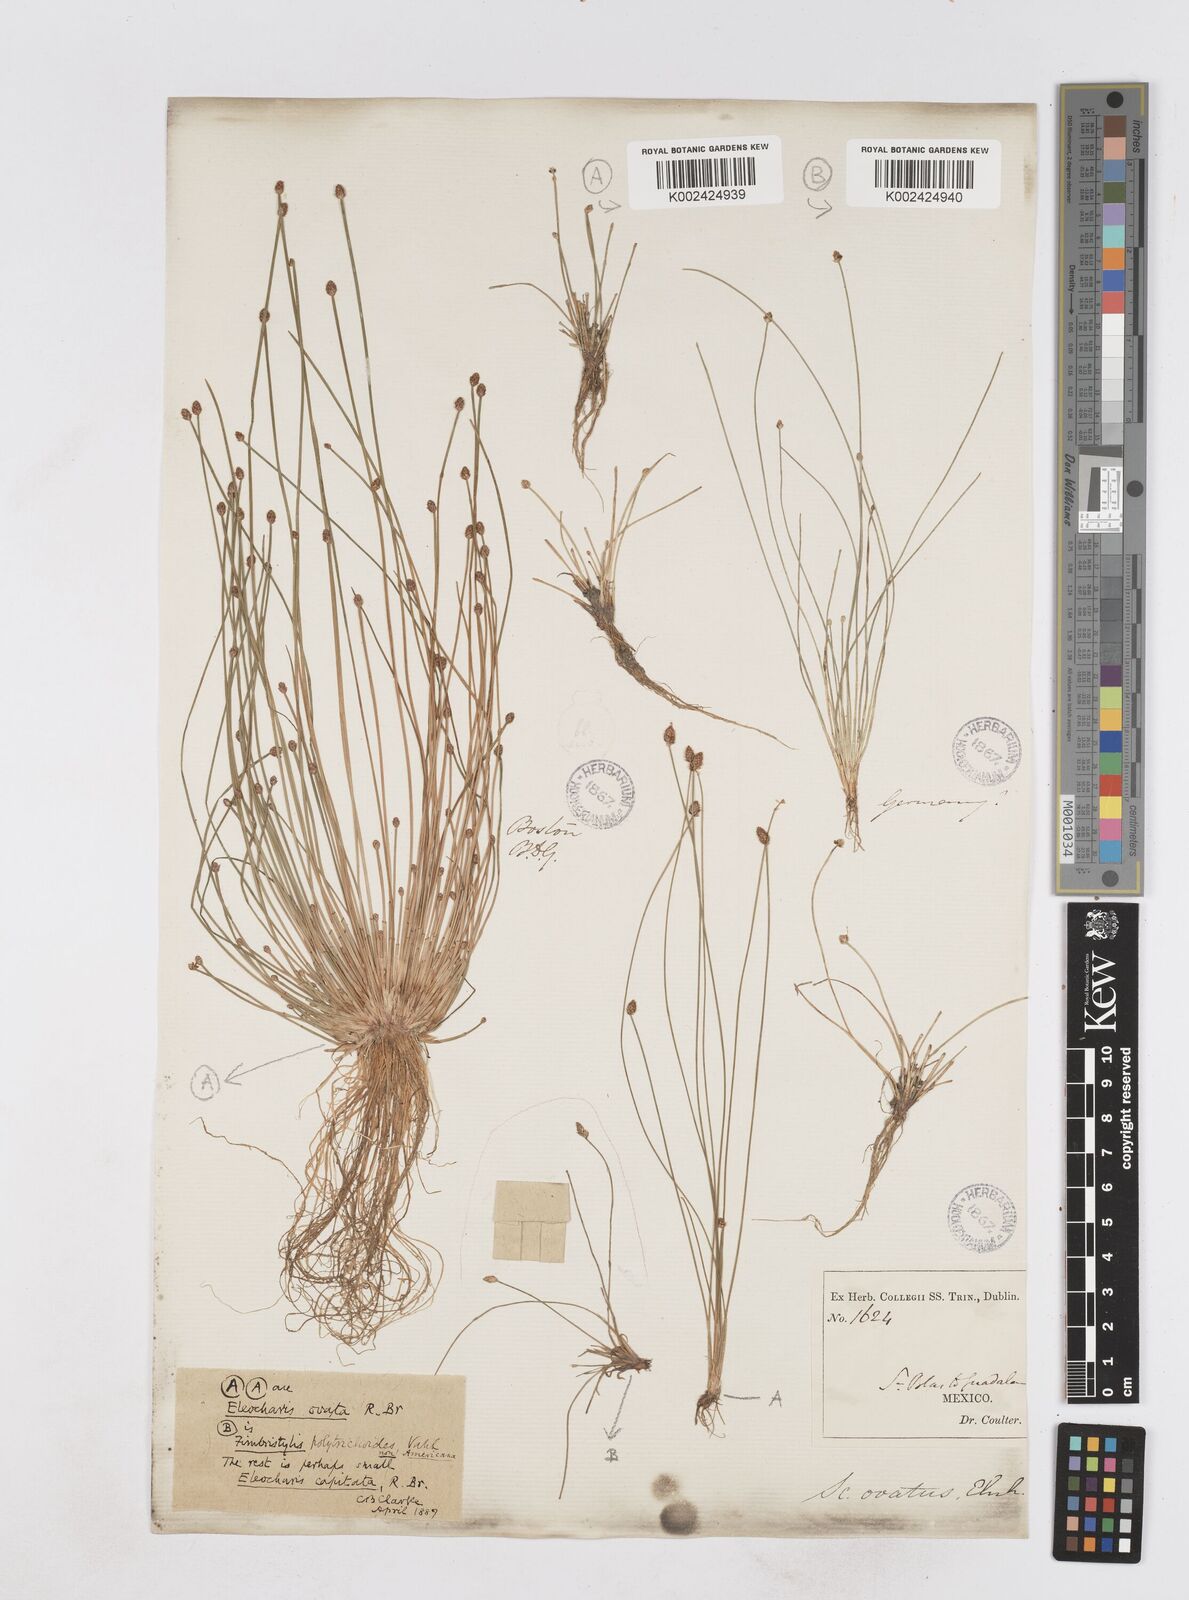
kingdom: Plantae
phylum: Tracheophyta
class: Liliopsida
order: Poales
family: Cyperaceae
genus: Eleocharis
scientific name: Eleocharis ovata
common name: Oval spike-rush
